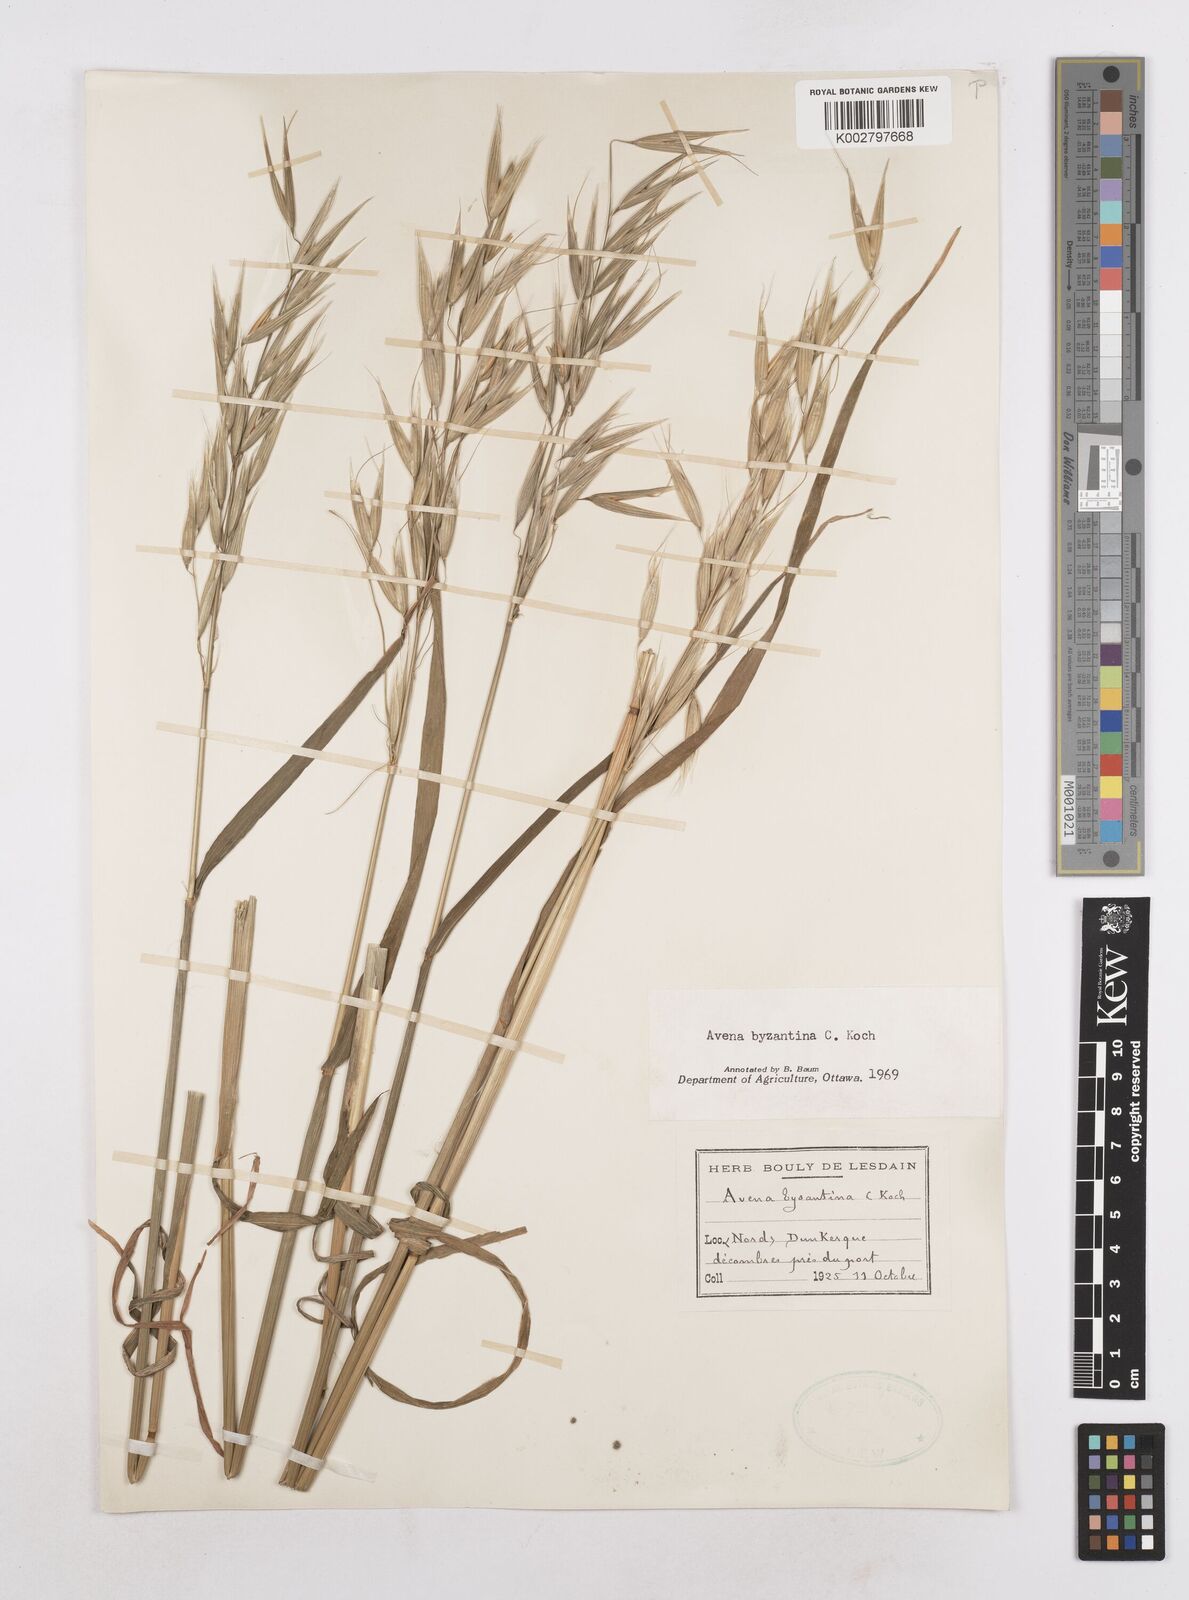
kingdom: Plantae
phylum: Tracheophyta
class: Liliopsida
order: Poales
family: Poaceae
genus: Avena
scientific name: Avena byzantina
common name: Algerian oat
